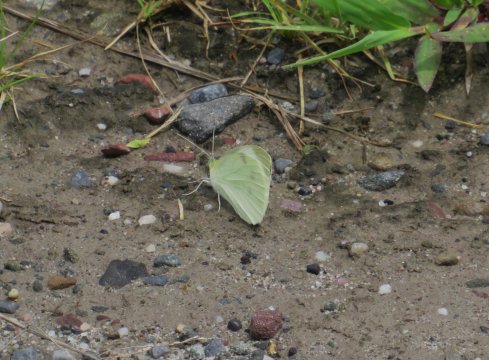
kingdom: Animalia
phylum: Arthropoda
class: Insecta
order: Lepidoptera
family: Pieridae
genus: Pieris
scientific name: Pieris rapae
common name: Cabbage White
